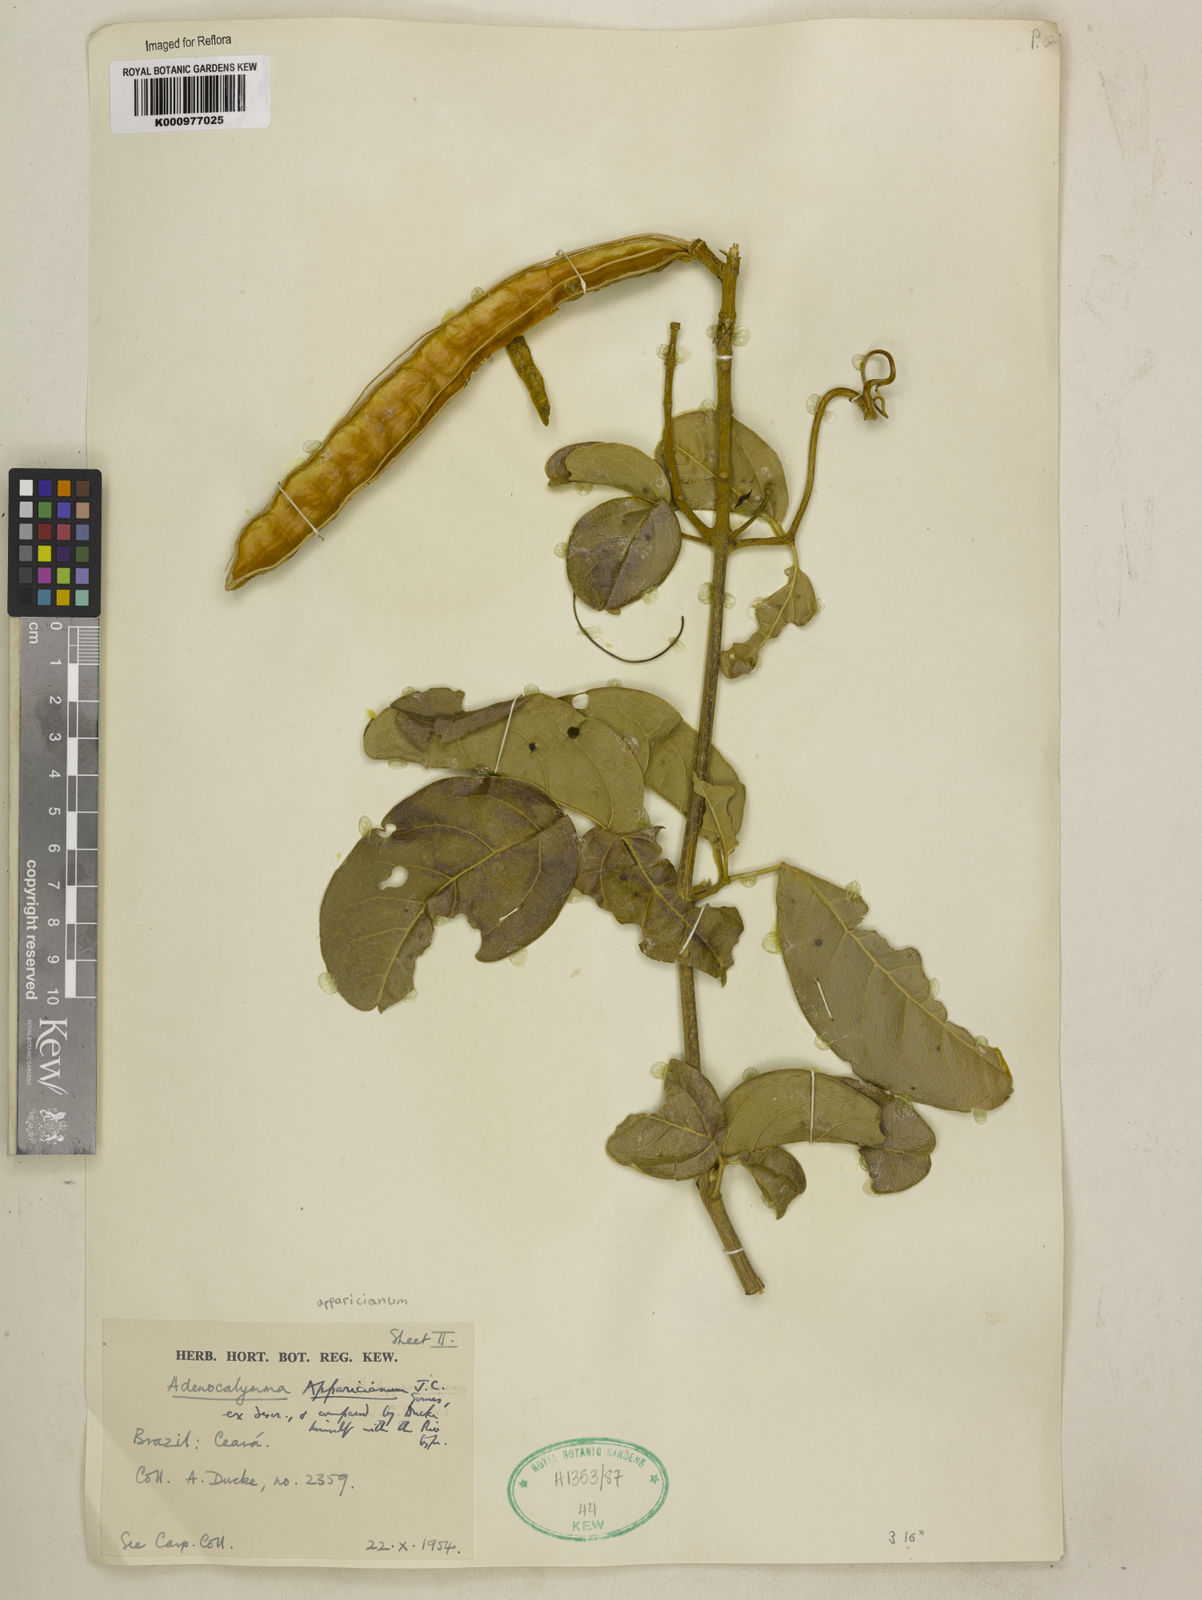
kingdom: Plantae
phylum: Tracheophyta
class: Magnoliopsida
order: Lamiales
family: Bignoniaceae
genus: Adenocalymma
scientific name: Adenocalymma apparicianum
